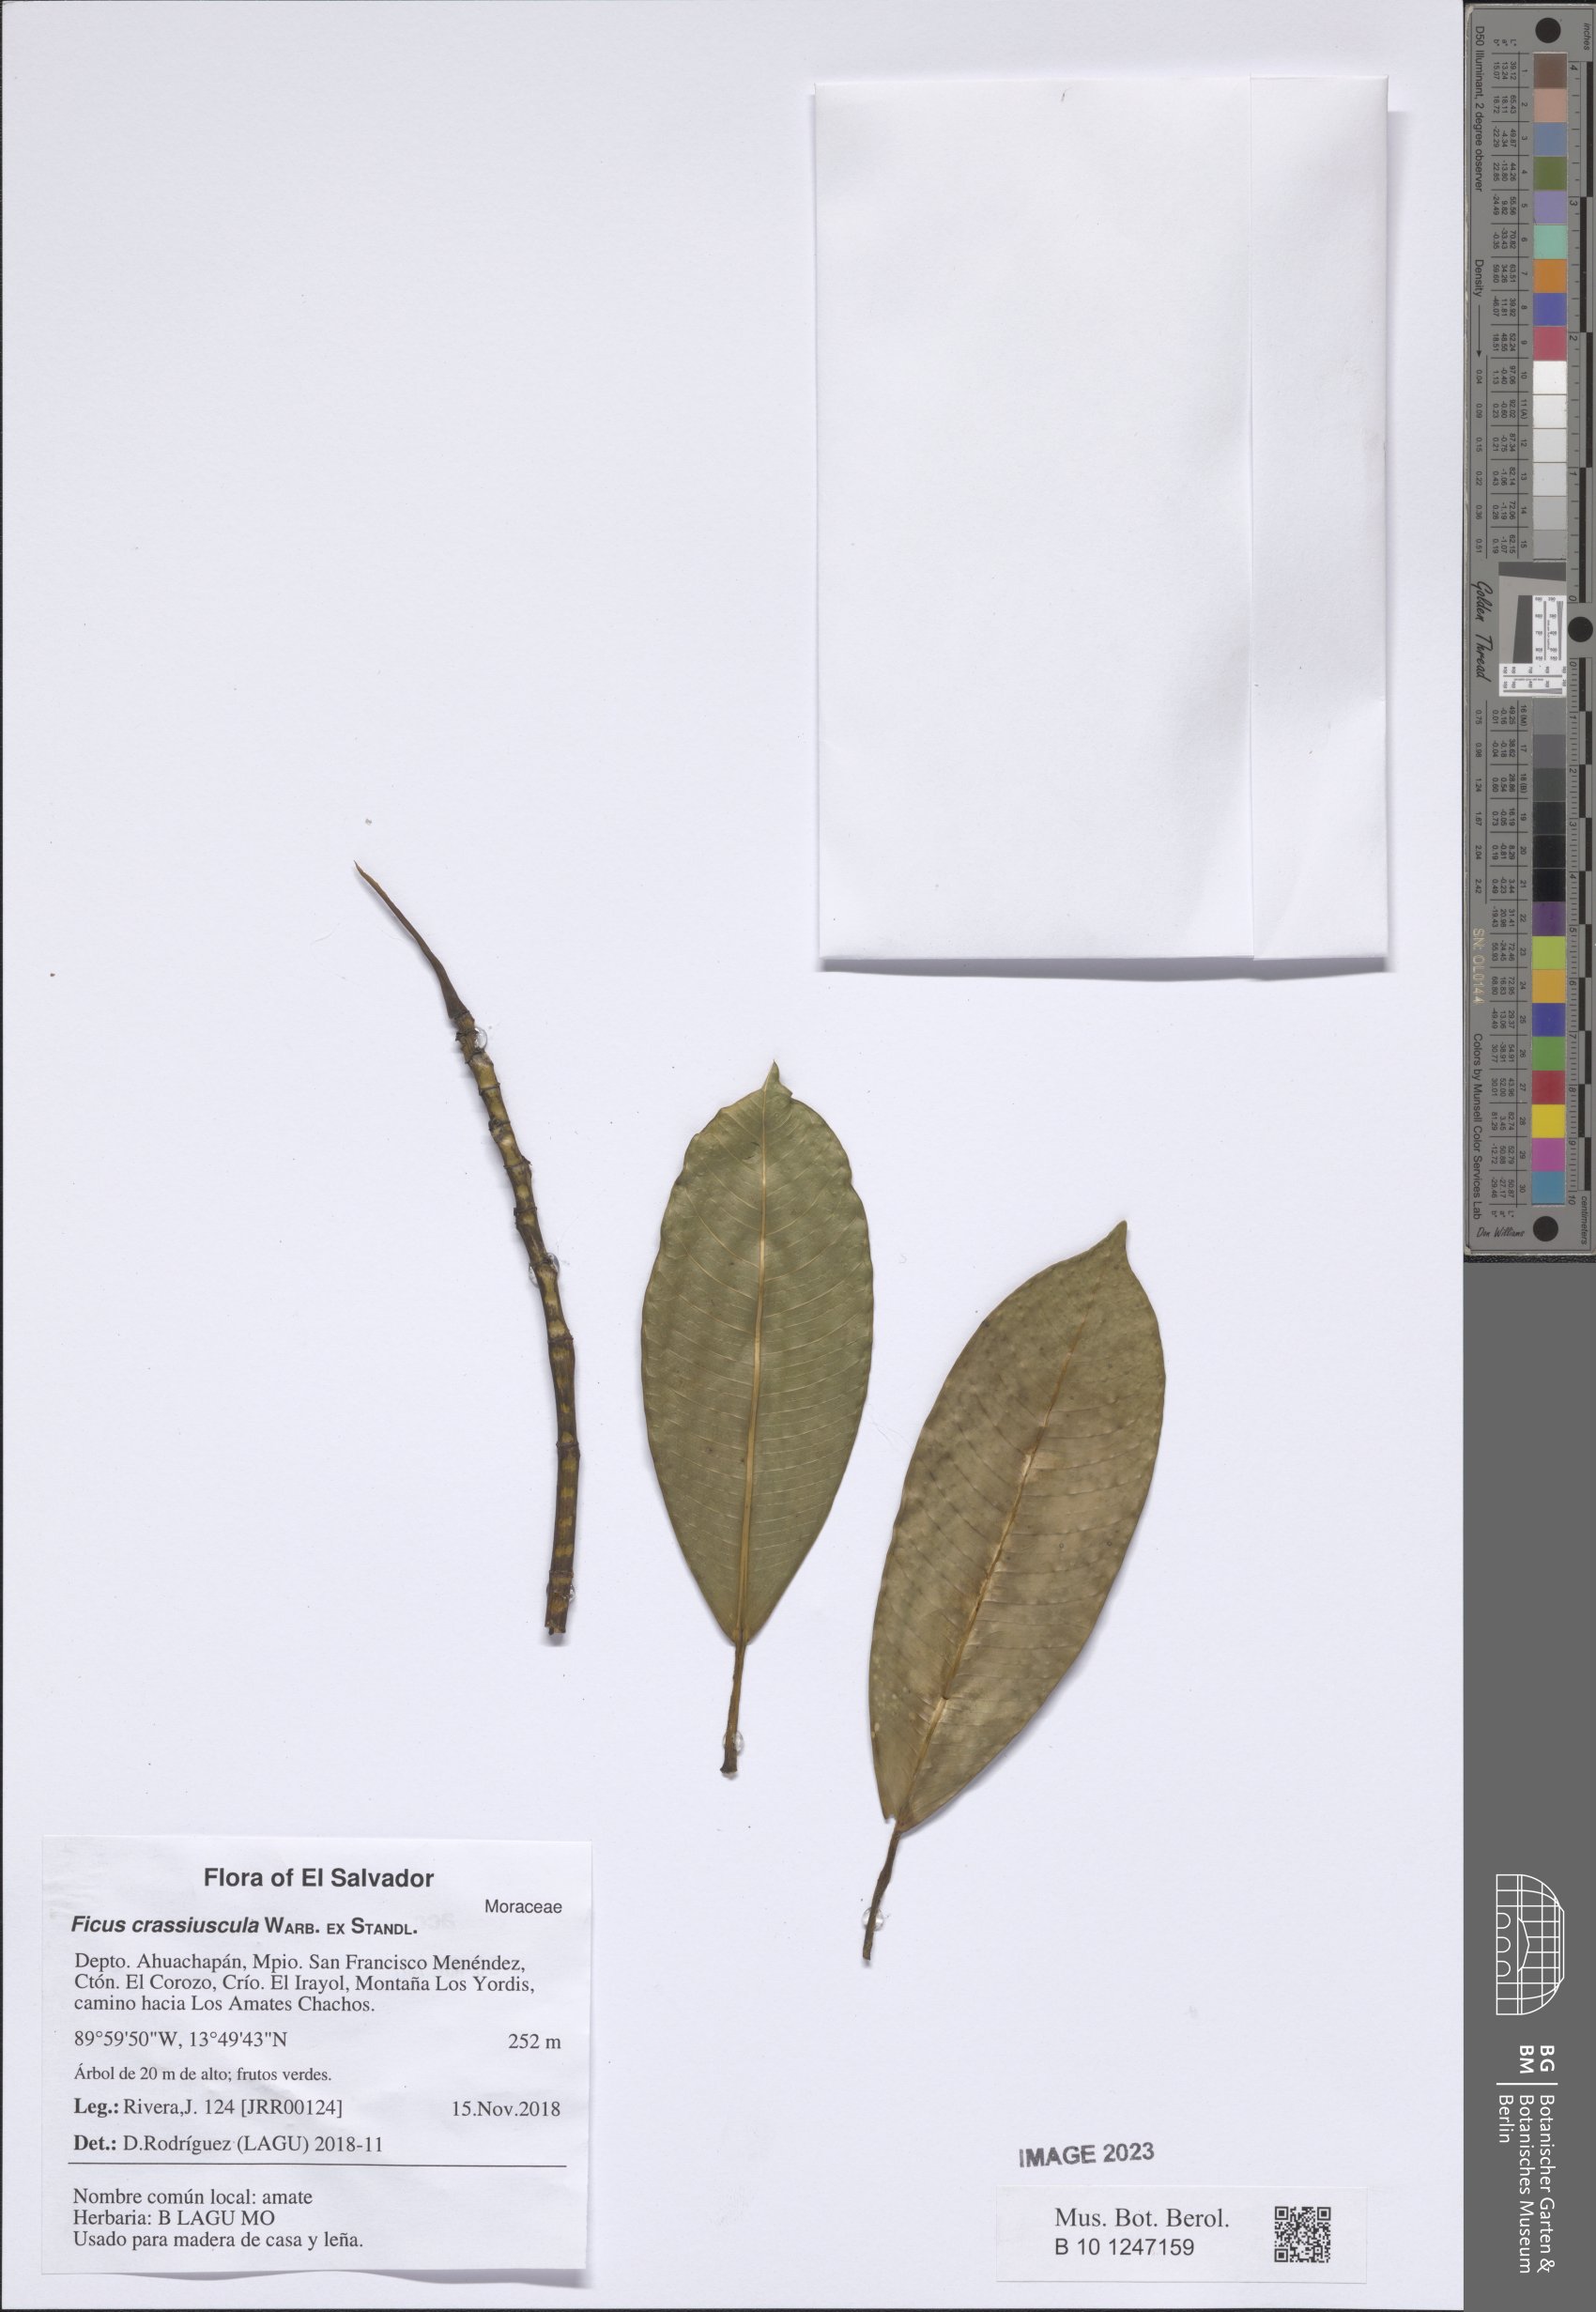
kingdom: Plantae
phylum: Tracheophyta
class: Magnoliopsida
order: Rosales
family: Moraceae
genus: Ficus
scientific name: Ficus crassiuscula
